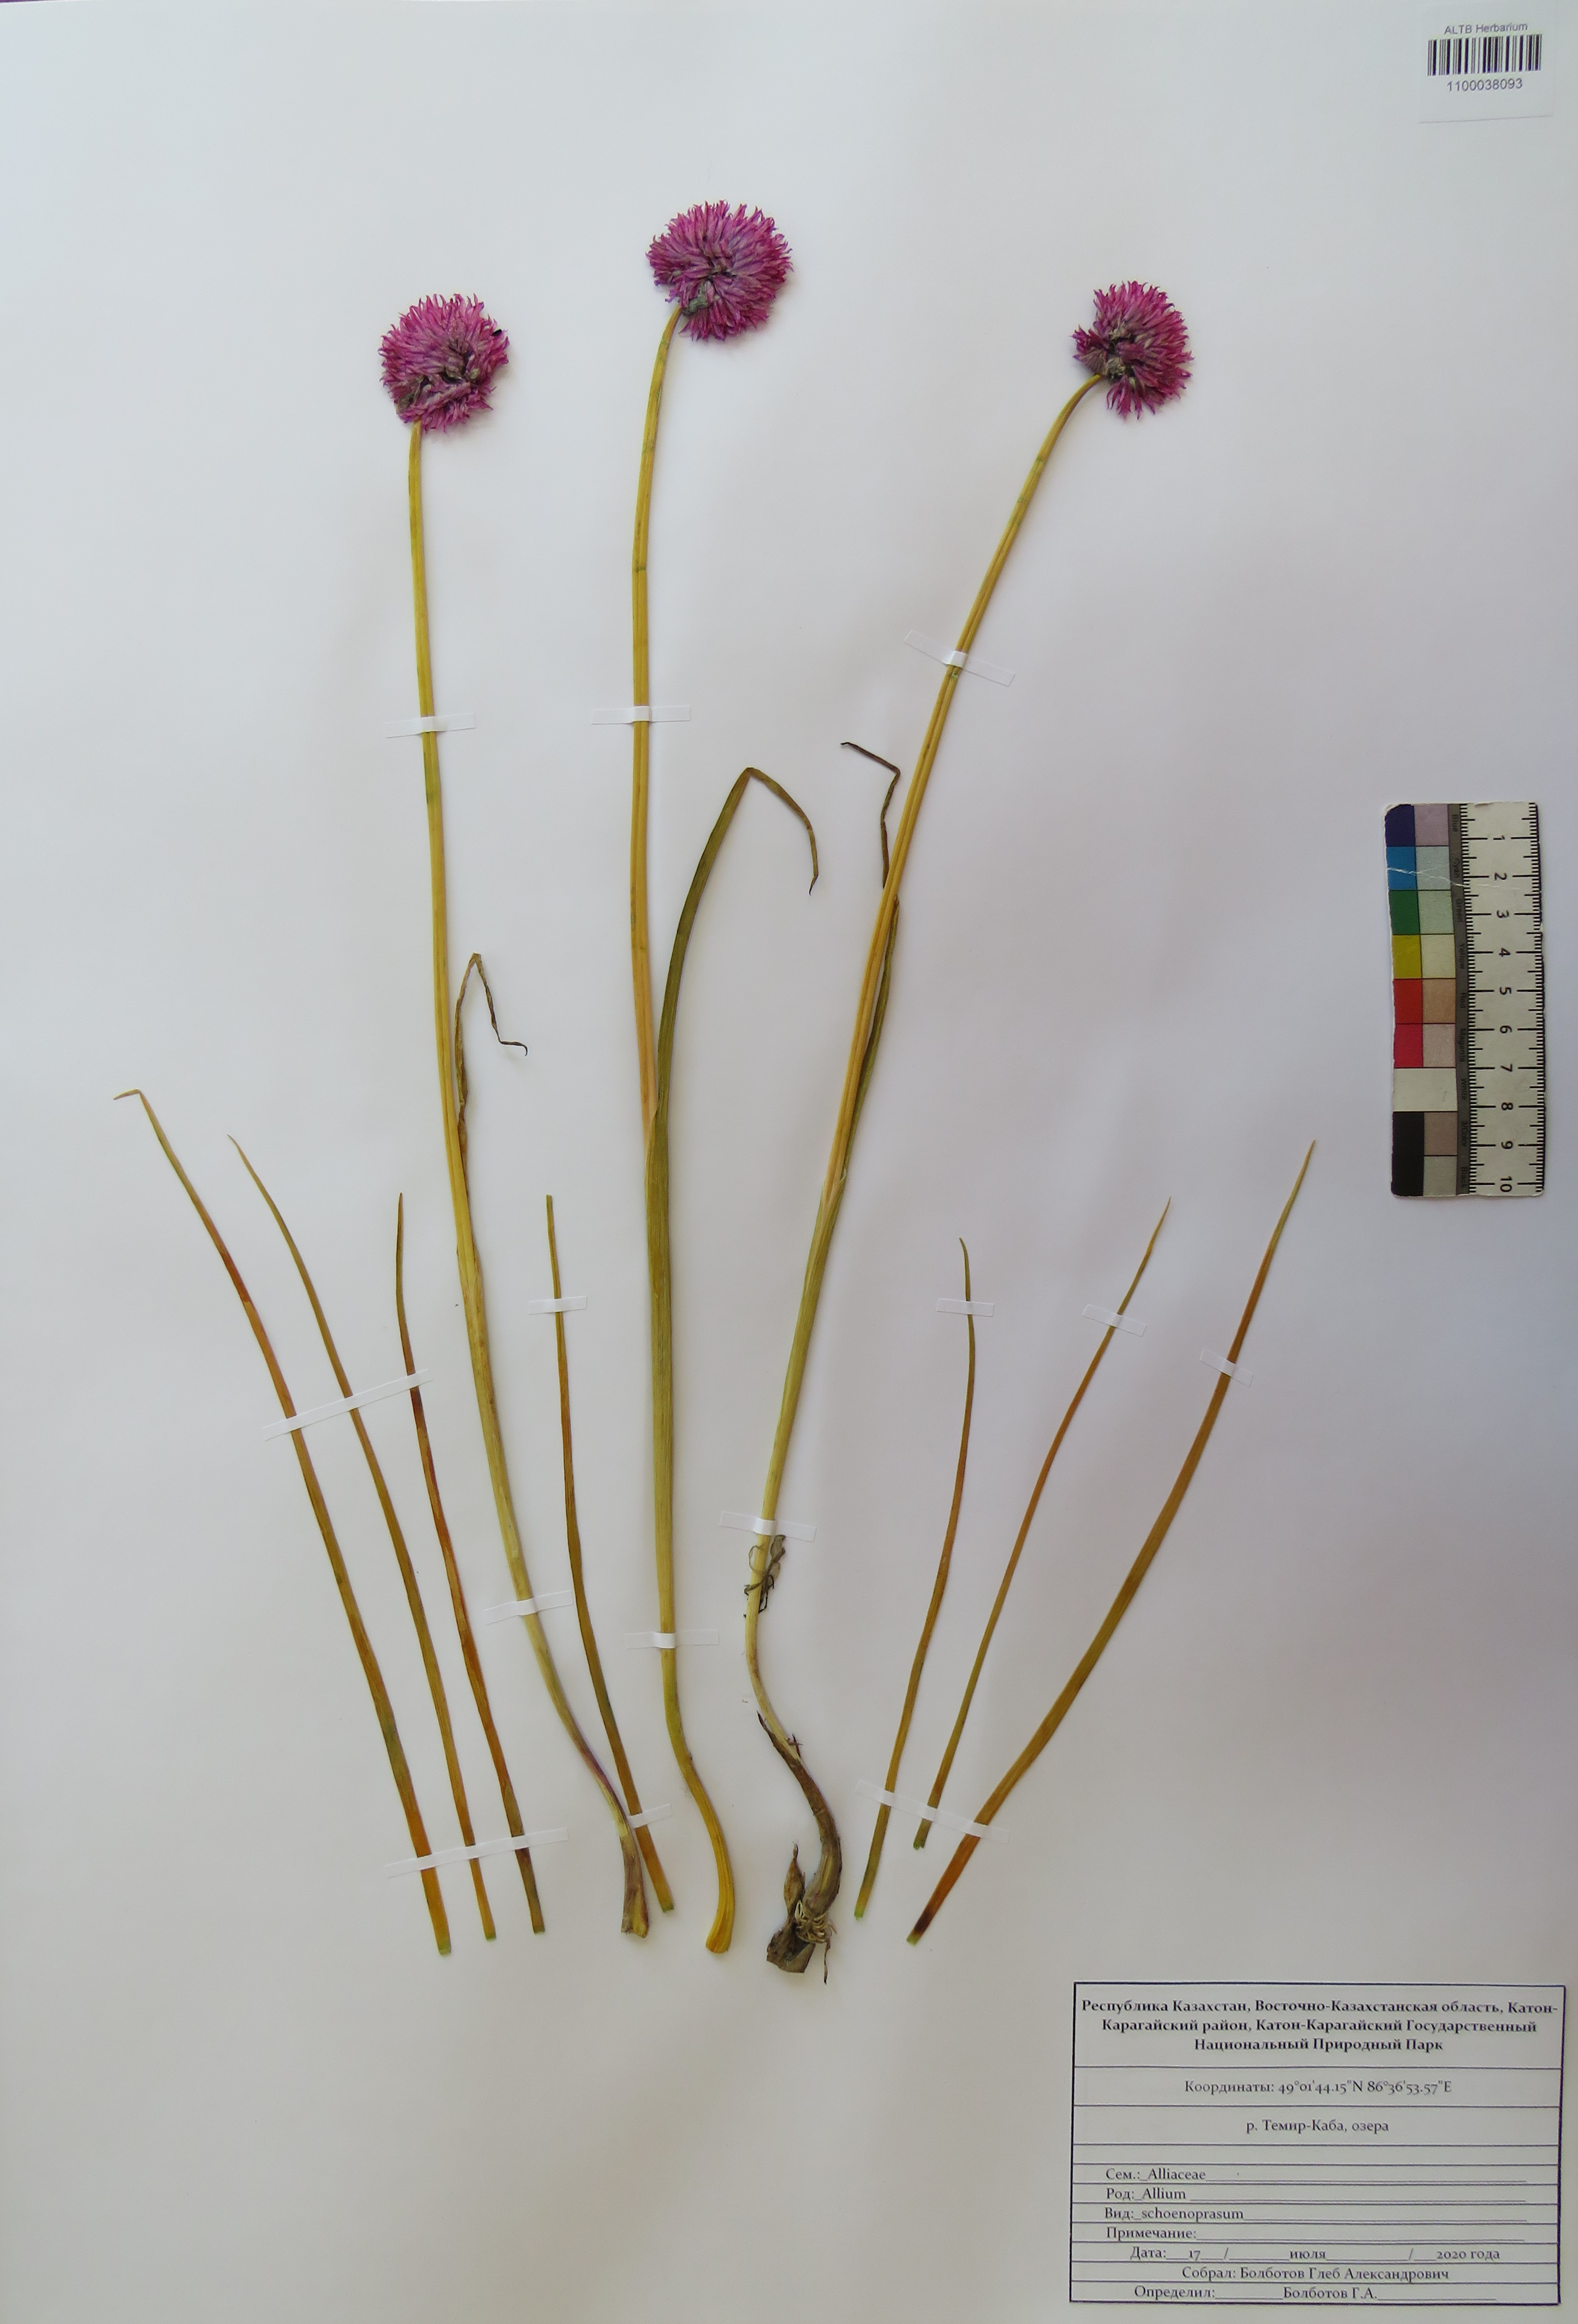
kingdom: Plantae
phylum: Tracheophyta
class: Liliopsida
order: Asparagales
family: Amaryllidaceae
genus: Allium
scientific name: Allium schoenoprasum
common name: Chives
